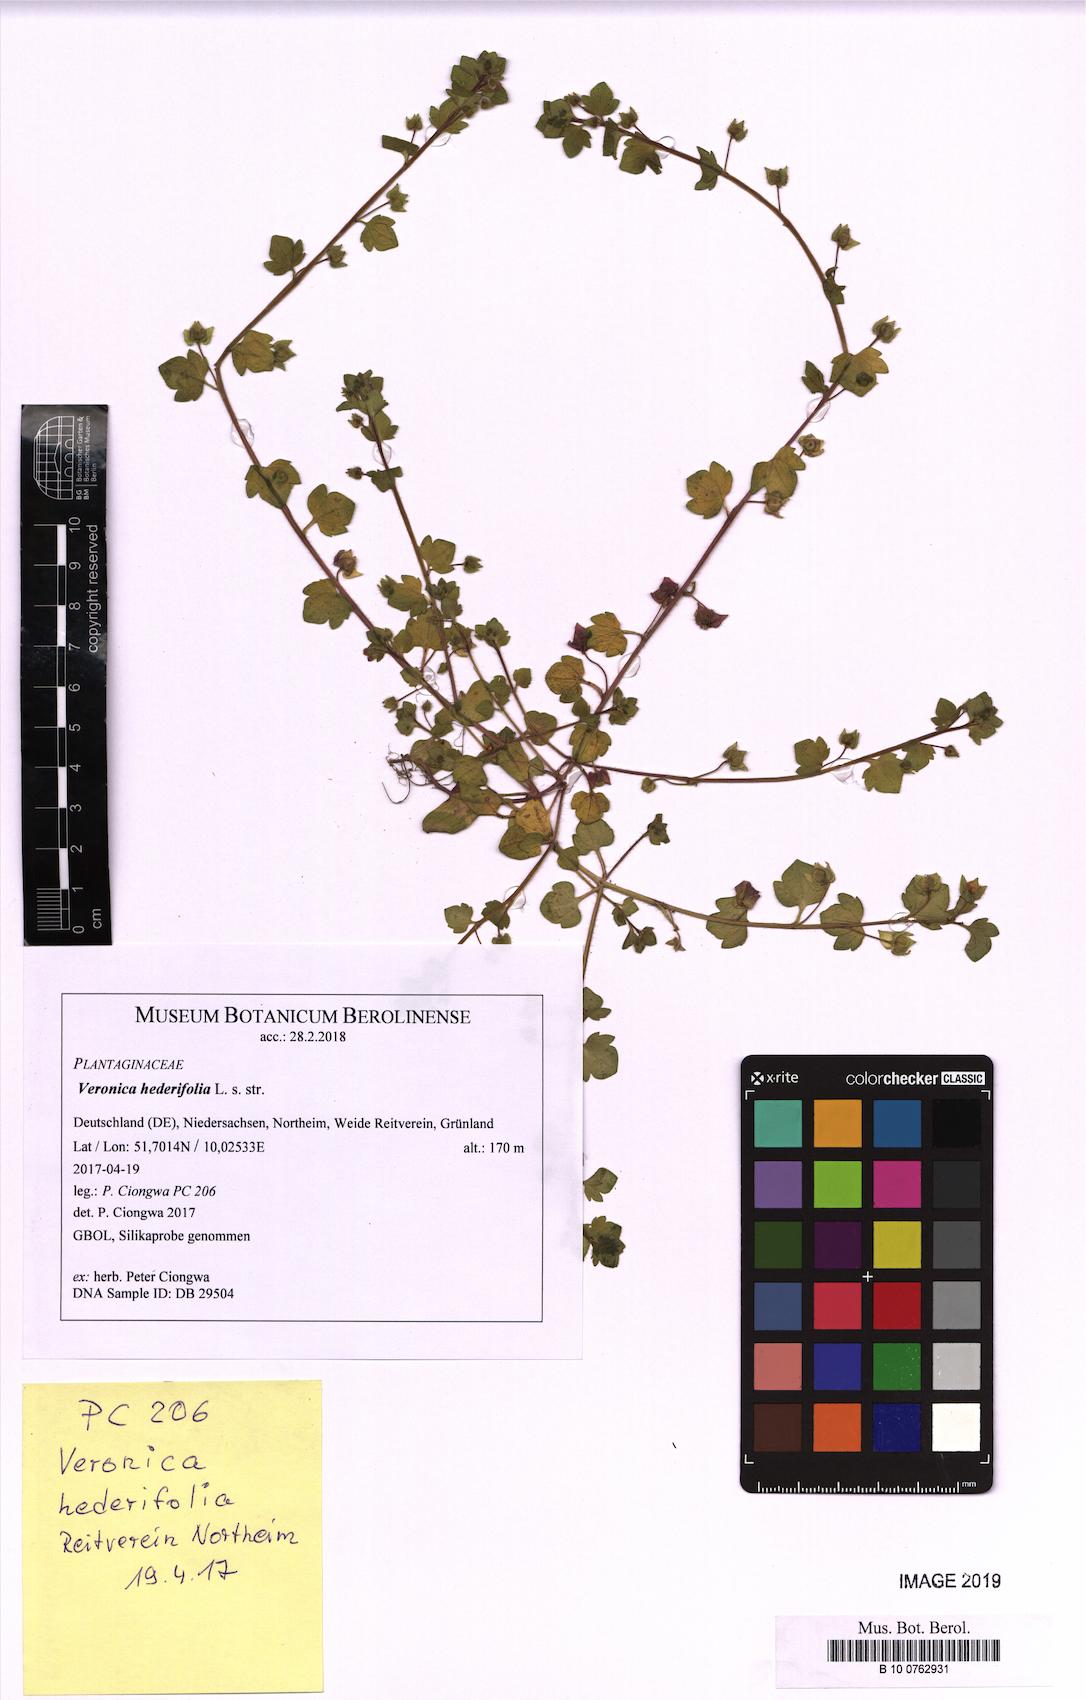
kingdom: Plantae
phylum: Tracheophyta
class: Magnoliopsida
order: Lamiales
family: Plantaginaceae
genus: Veronica
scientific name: Veronica hederifolia
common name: Ivy-leaved speedwell
